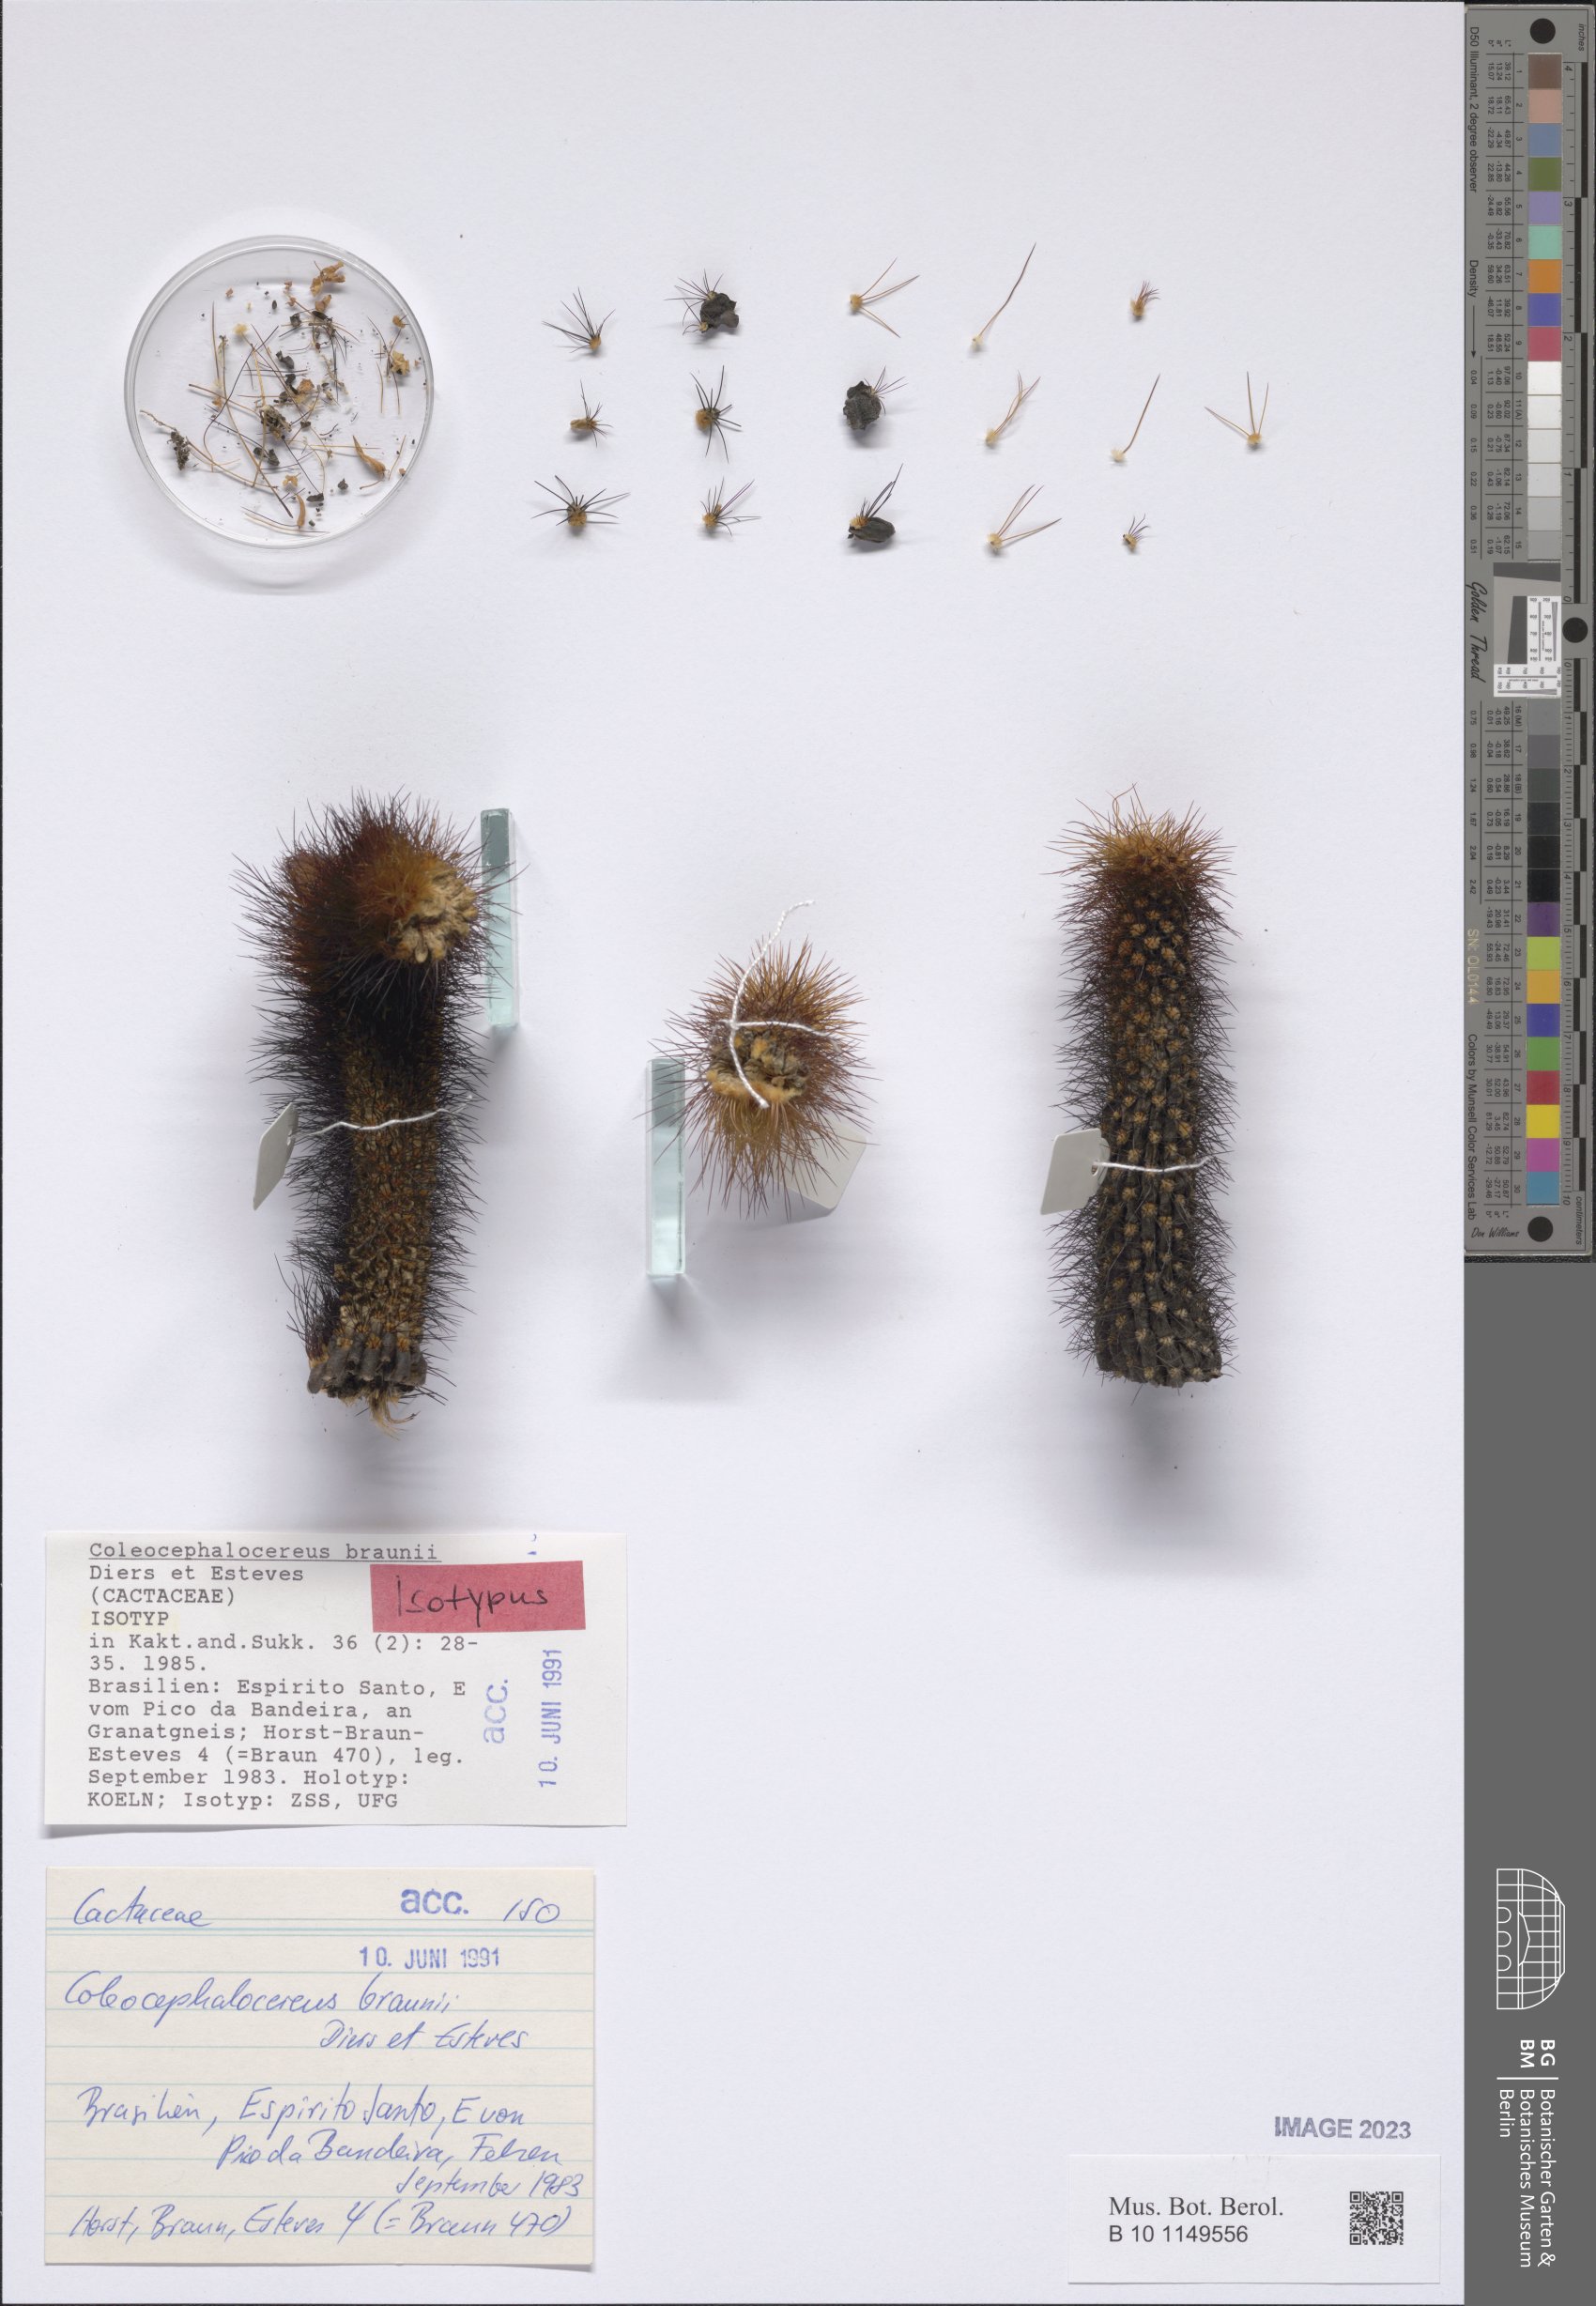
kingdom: Plantae
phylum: Tracheophyta
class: Magnoliopsida
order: Caryophyllales
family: Cactaceae
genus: Coleocephalocereus
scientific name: Coleocephalocereus braunii
